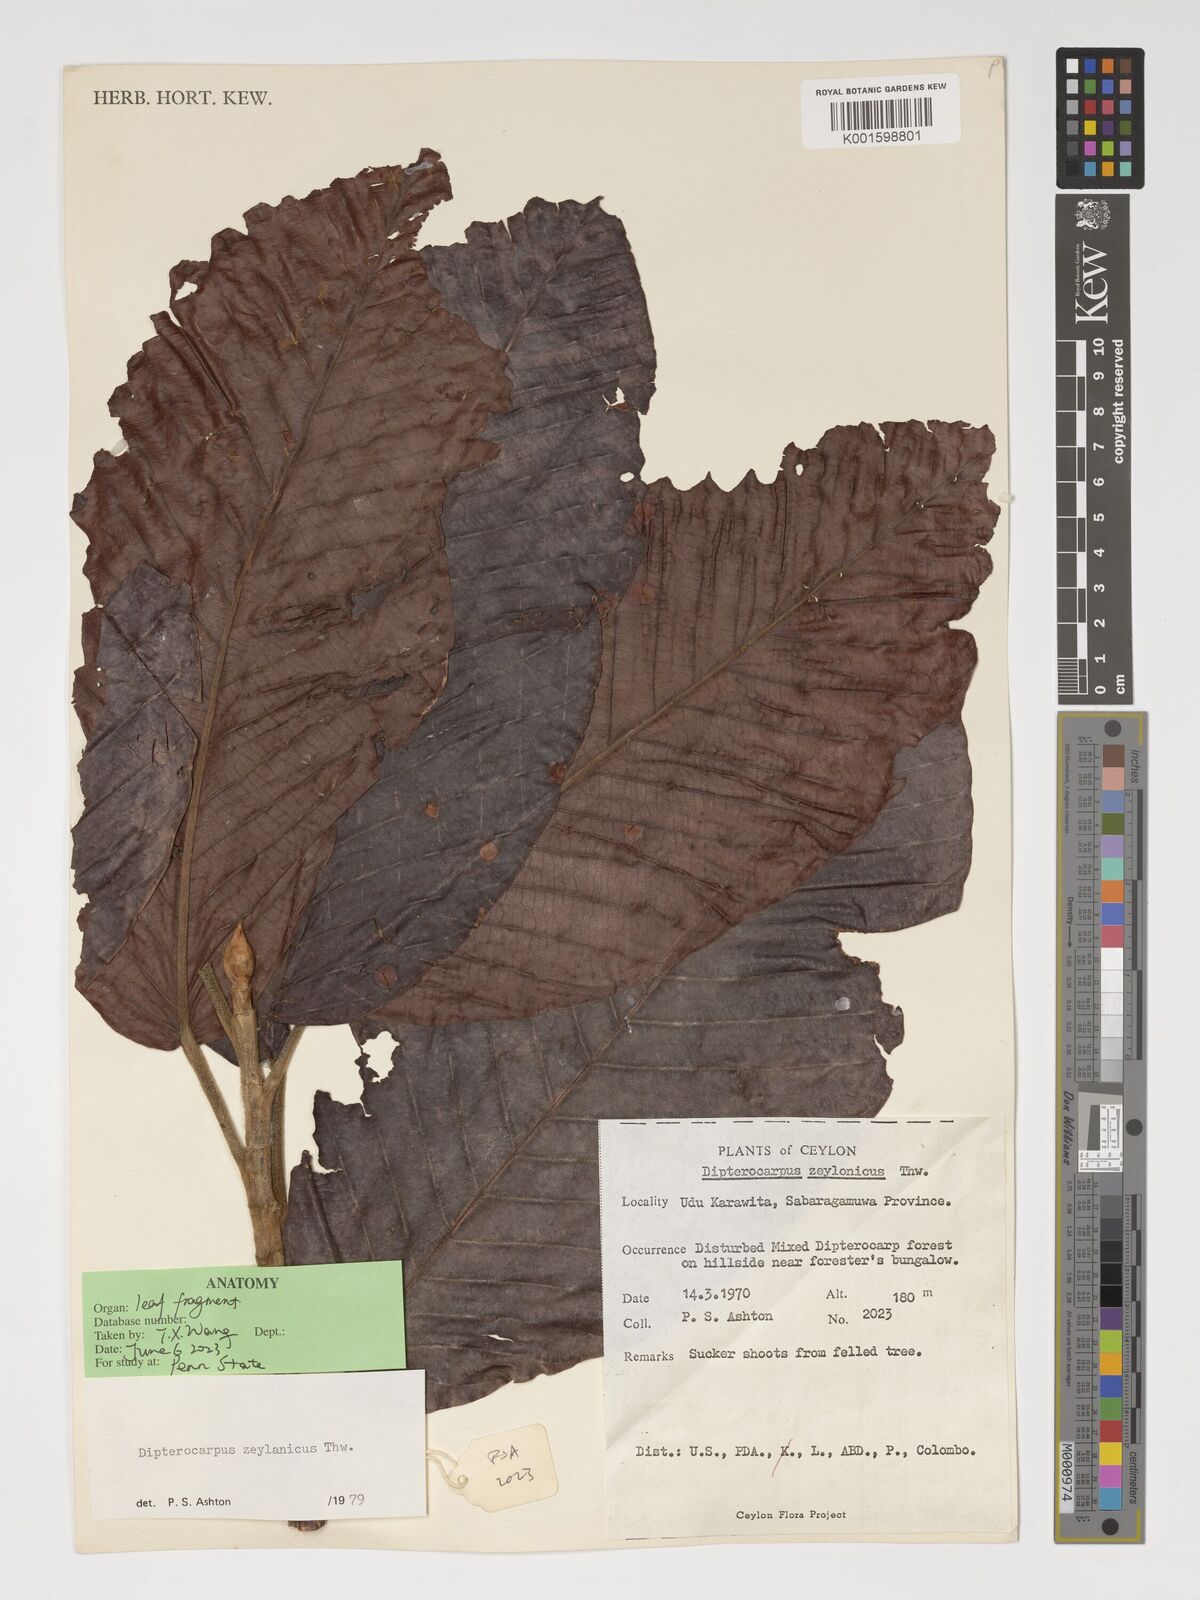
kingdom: Plantae
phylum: Tracheophyta
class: Magnoliopsida
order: Malvales
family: Dipterocarpaceae
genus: Dipterocarpus
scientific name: Dipterocarpus zeylanicus
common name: Hora
